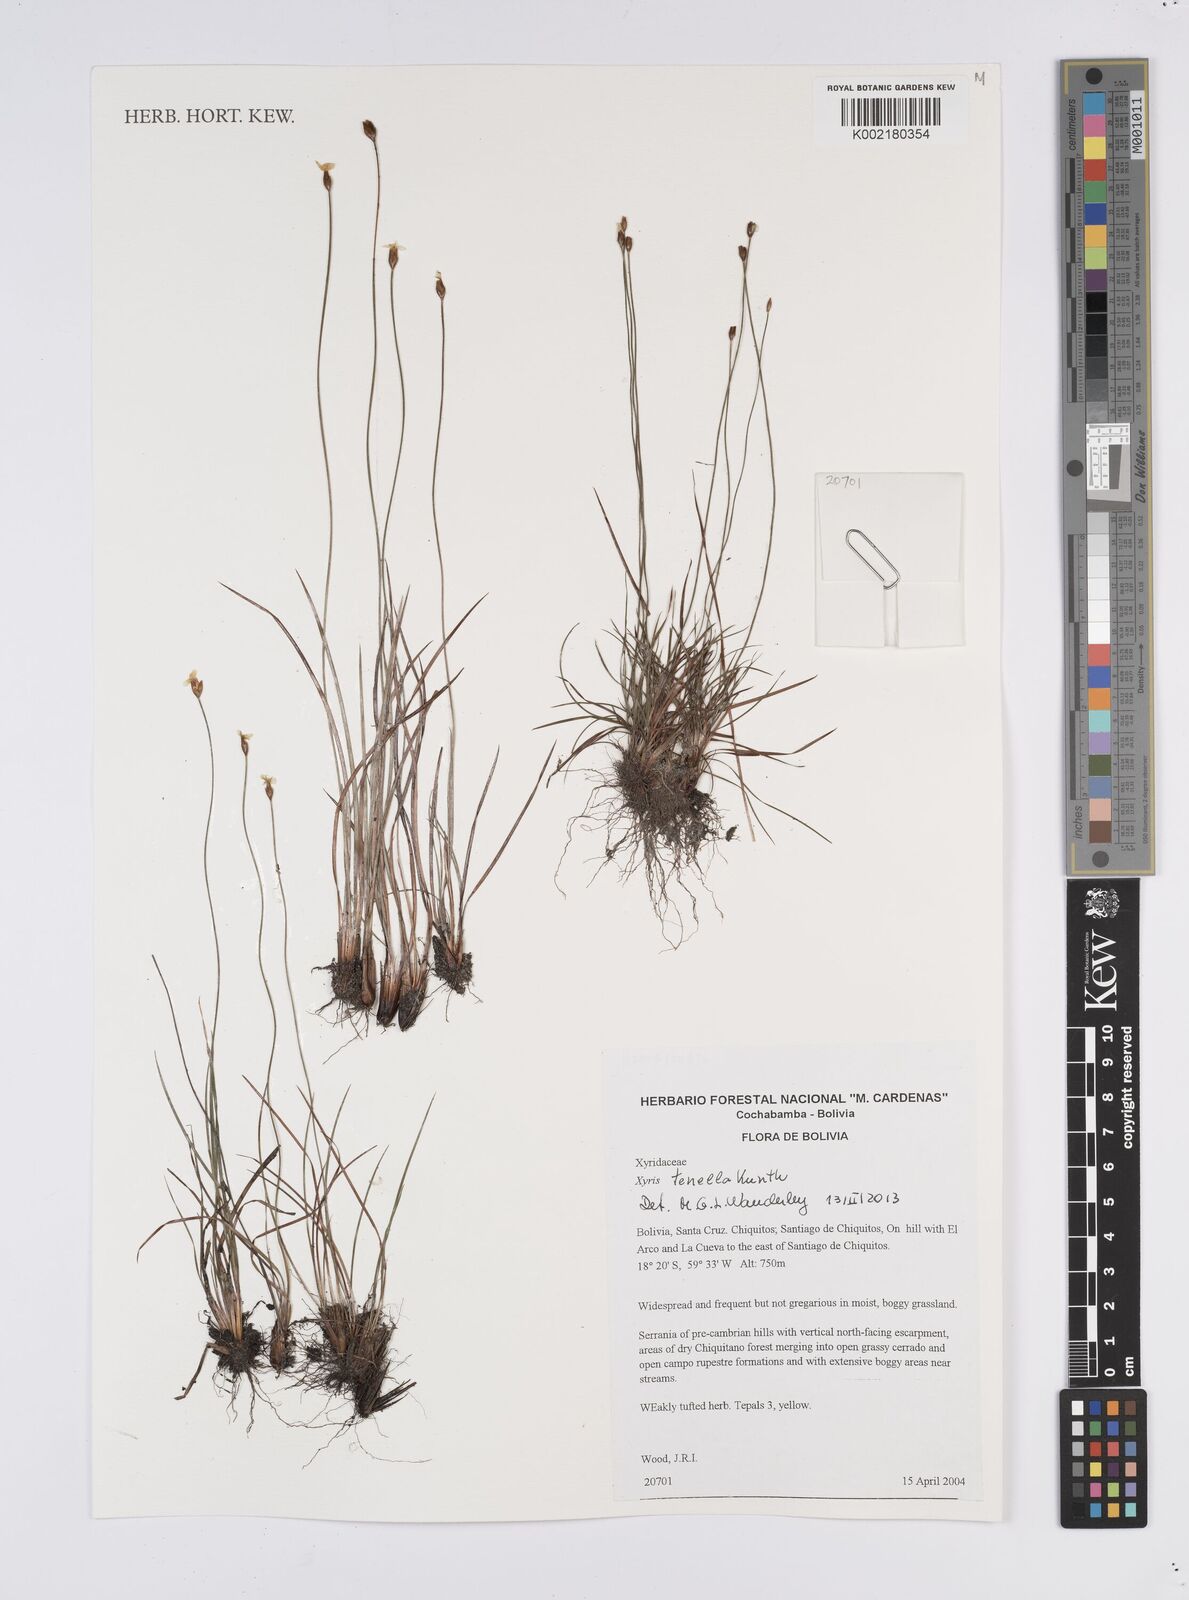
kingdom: Plantae
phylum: Tracheophyta
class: Liliopsida
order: Poales
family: Xyridaceae
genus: Xyris
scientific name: Xyris tenella
